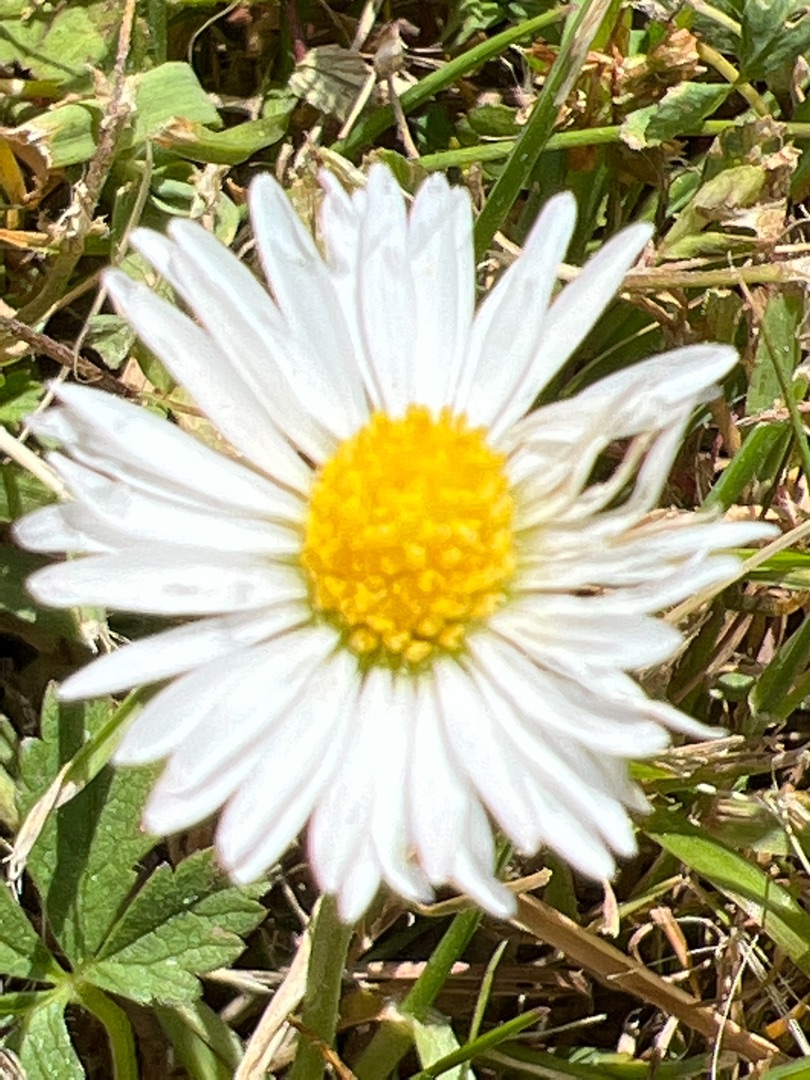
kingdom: Plantae
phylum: Tracheophyta
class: Magnoliopsida
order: Asterales
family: Asteraceae
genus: Bellis
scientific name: Bellis perennis
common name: Tusindfryd
